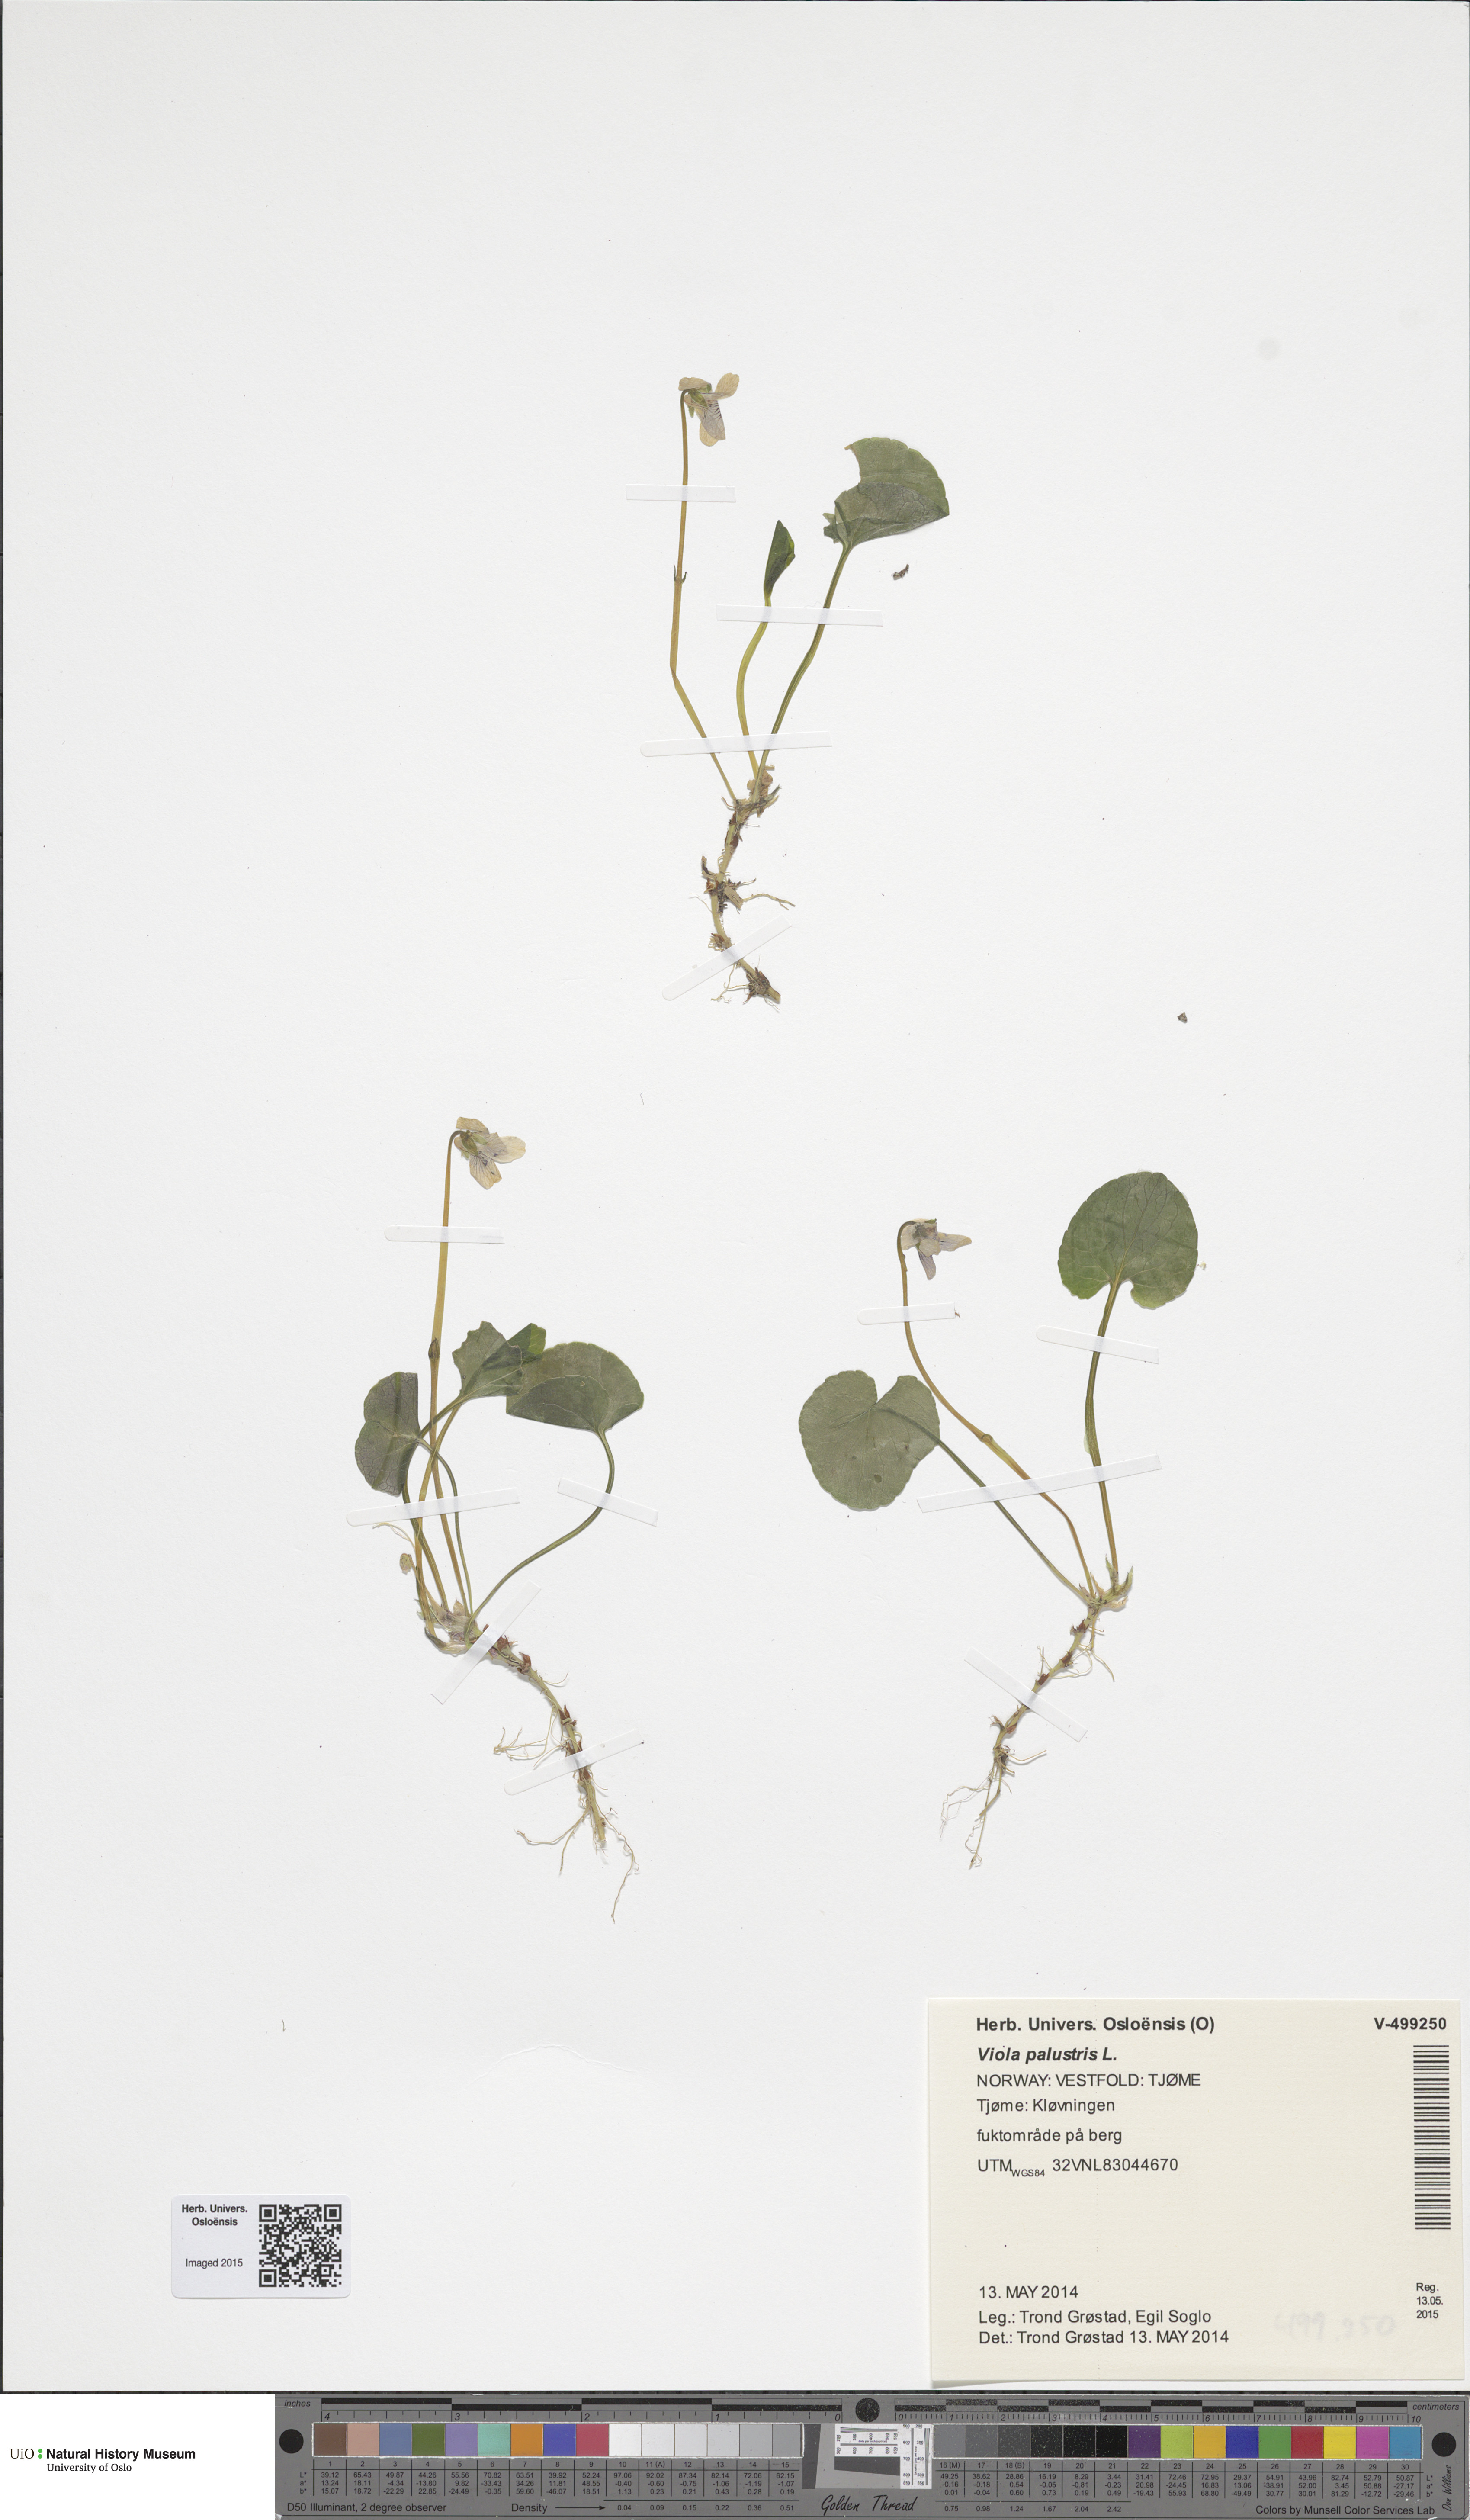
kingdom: Plantae
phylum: Tracheophyta
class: Magnoliopsida
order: Malpighiales
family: Violaceae
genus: Viola
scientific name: Viola palustris
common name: Marsh violet
